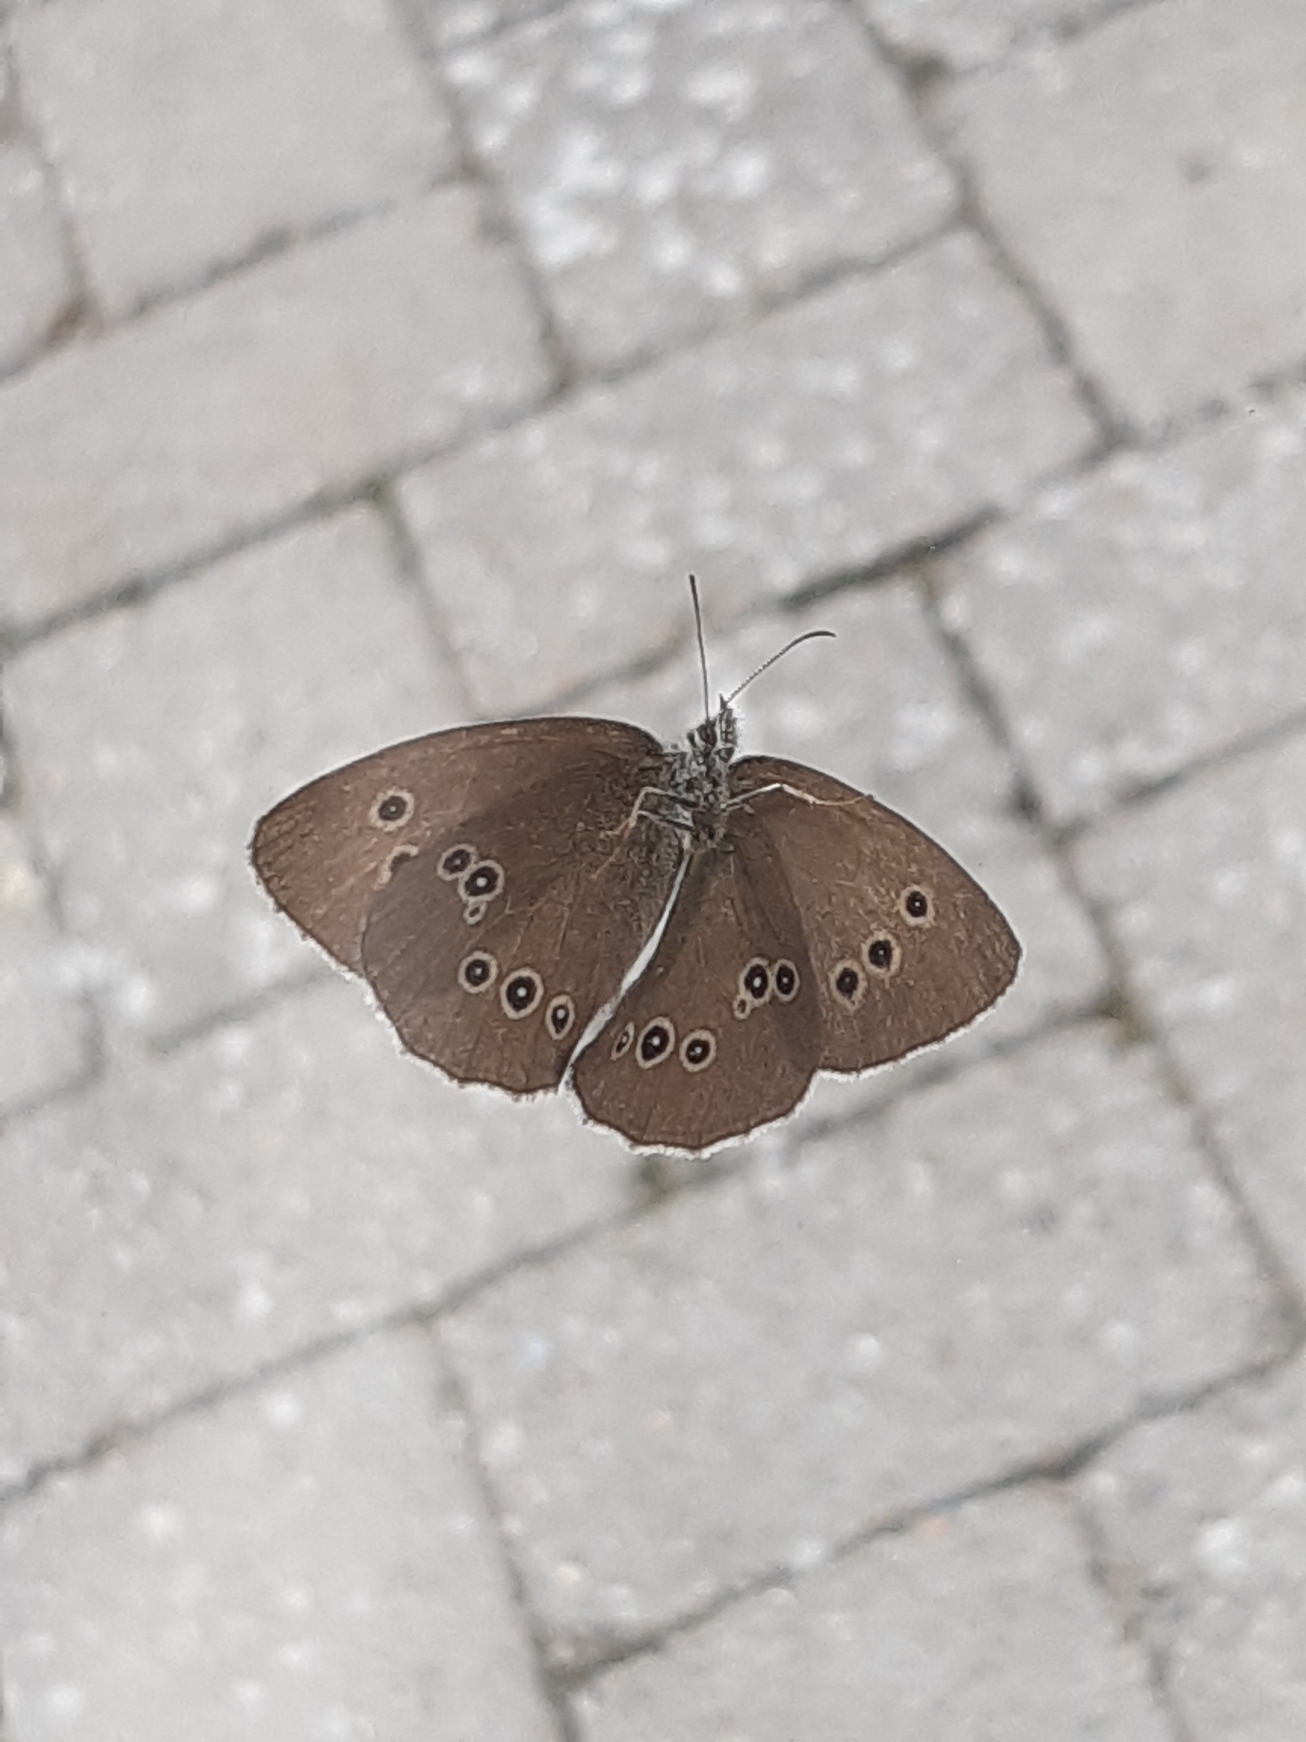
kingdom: Animalia
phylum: Arthropoda
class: Insecta
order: Lepidoptera
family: Nymphalidae
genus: Aphantopus
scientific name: Aphantopus hyperantus
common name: Engrandøje
